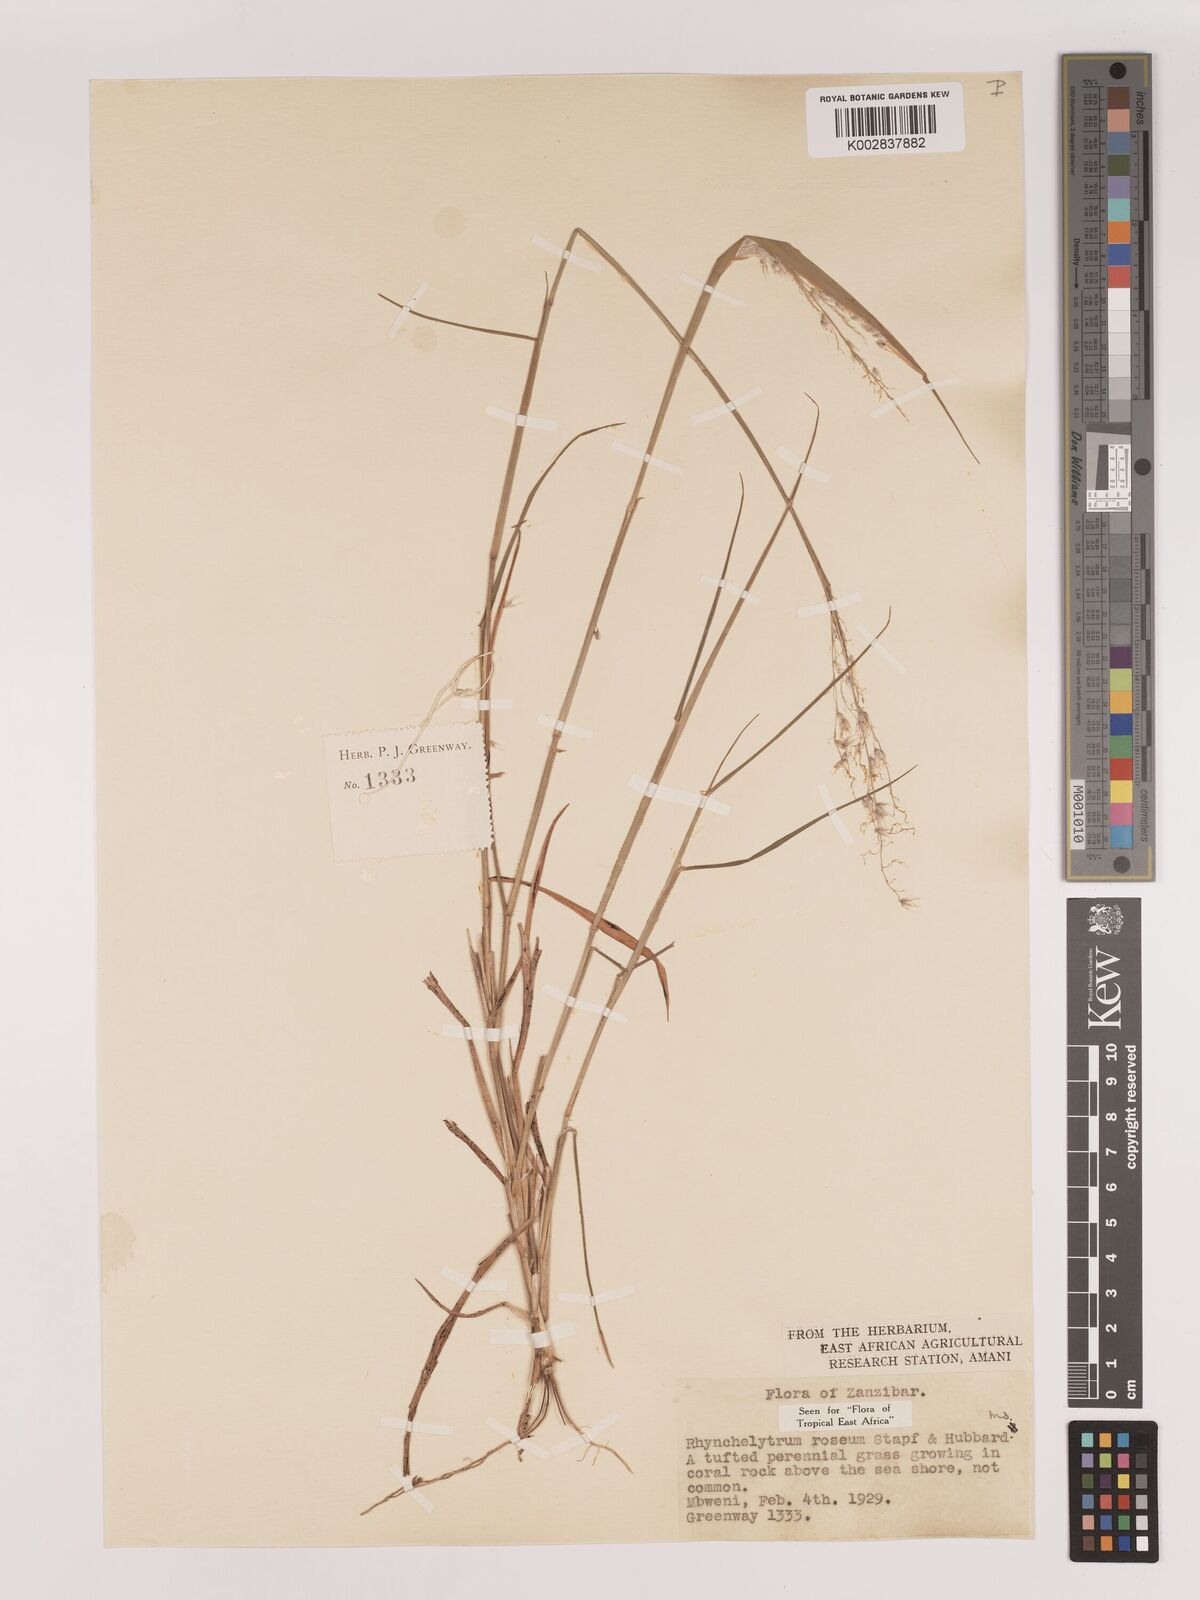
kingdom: Plantae
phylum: Tracheophyta
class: Liliopsida
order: Poales
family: Poaceae
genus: Melinis
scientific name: Melinis repens
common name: Rose natal grass
